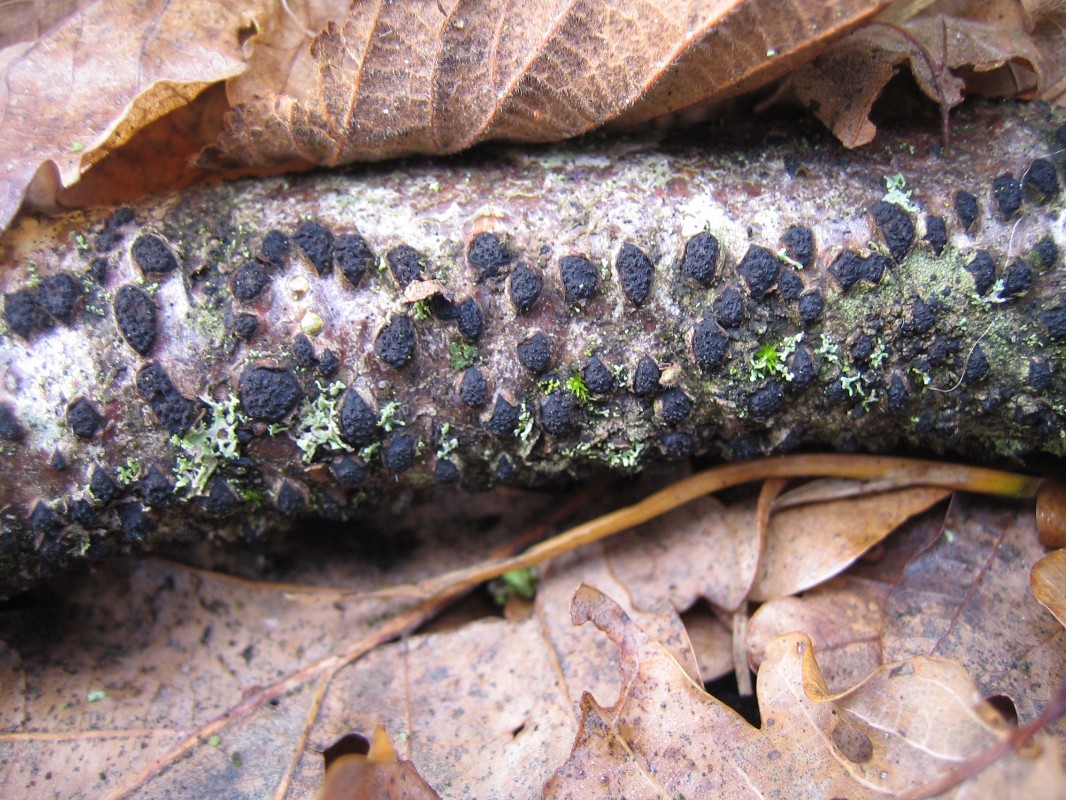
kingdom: Fungi
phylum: Ascomycota
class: Sordariomycetes
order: Xylariales
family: Hypoxylaceae
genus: Jackrogersella
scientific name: Jackrogersella multiformis
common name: foranderlig kulbær
